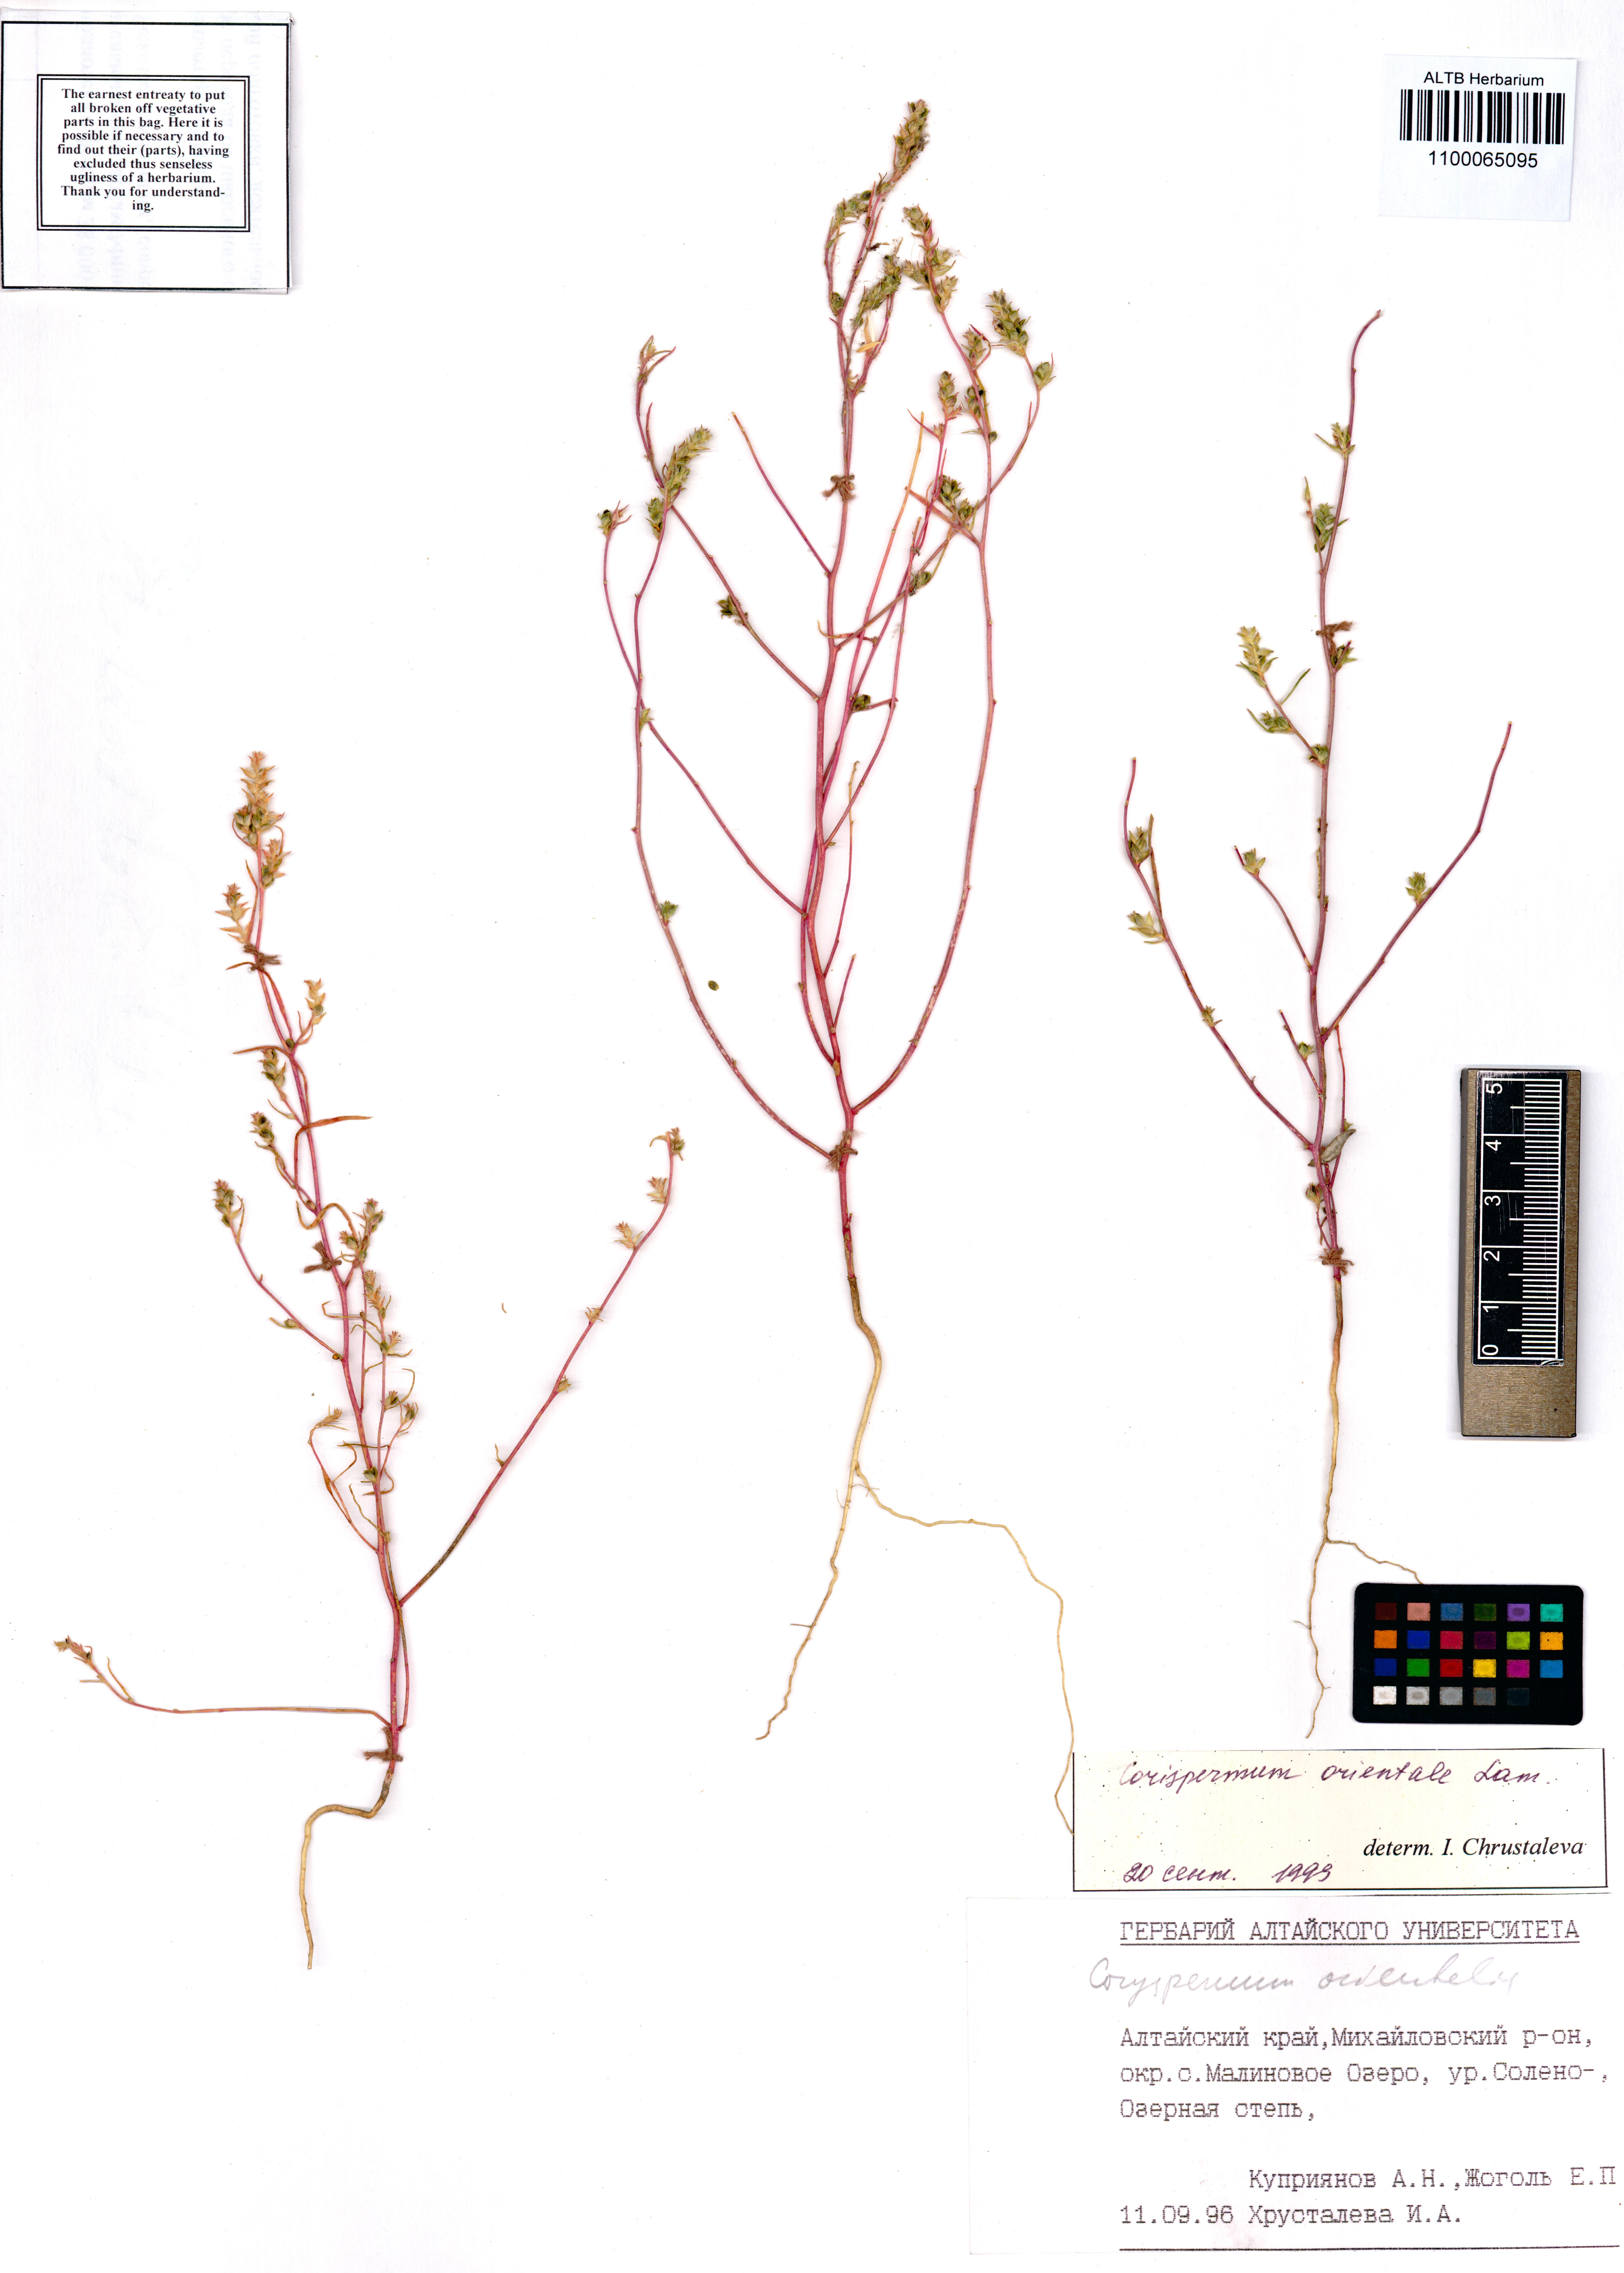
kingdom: Plantae
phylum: Tracheophyta
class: Magnoliopsida
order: Caryophyllales
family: Amaranthaceae
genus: Corispermum
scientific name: Corispermum aralocaspicum
